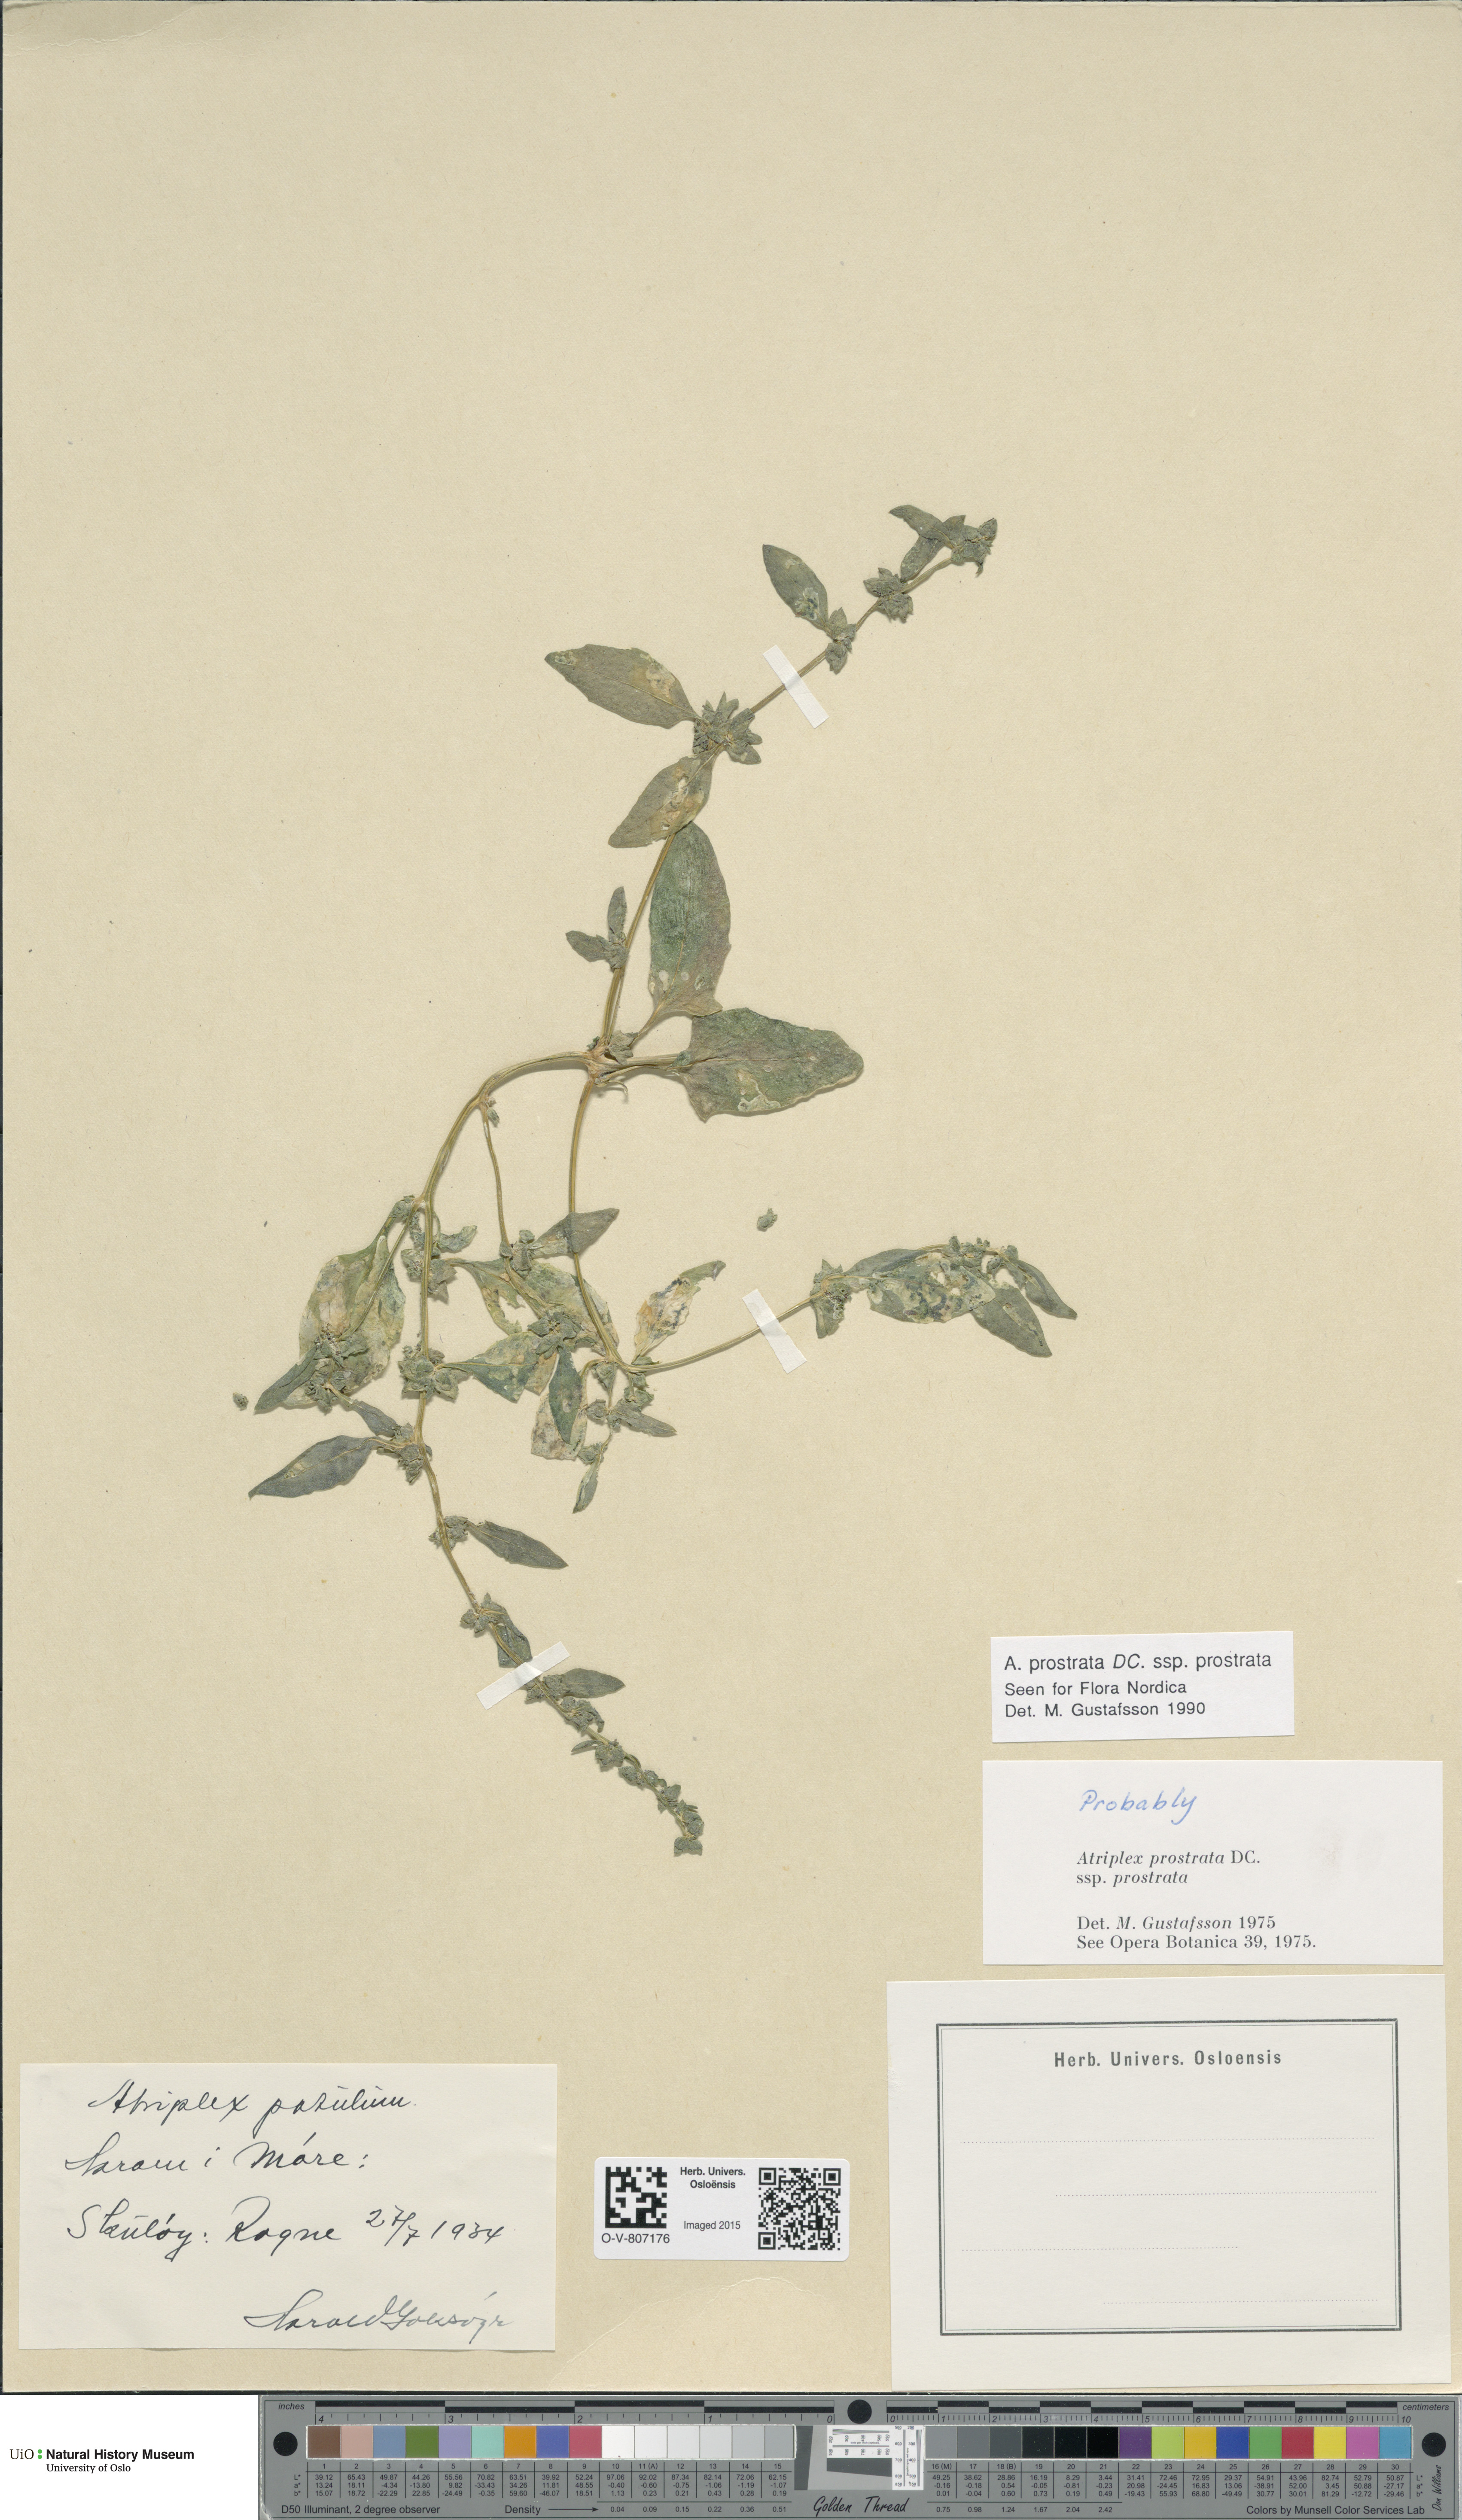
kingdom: Plantae
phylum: Tracheophyta
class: Magnoliopsida
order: Caryophyllales
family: Amaranthaceae
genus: Atriplex
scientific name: Atriplex prostrata
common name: Spear-leaved orache
